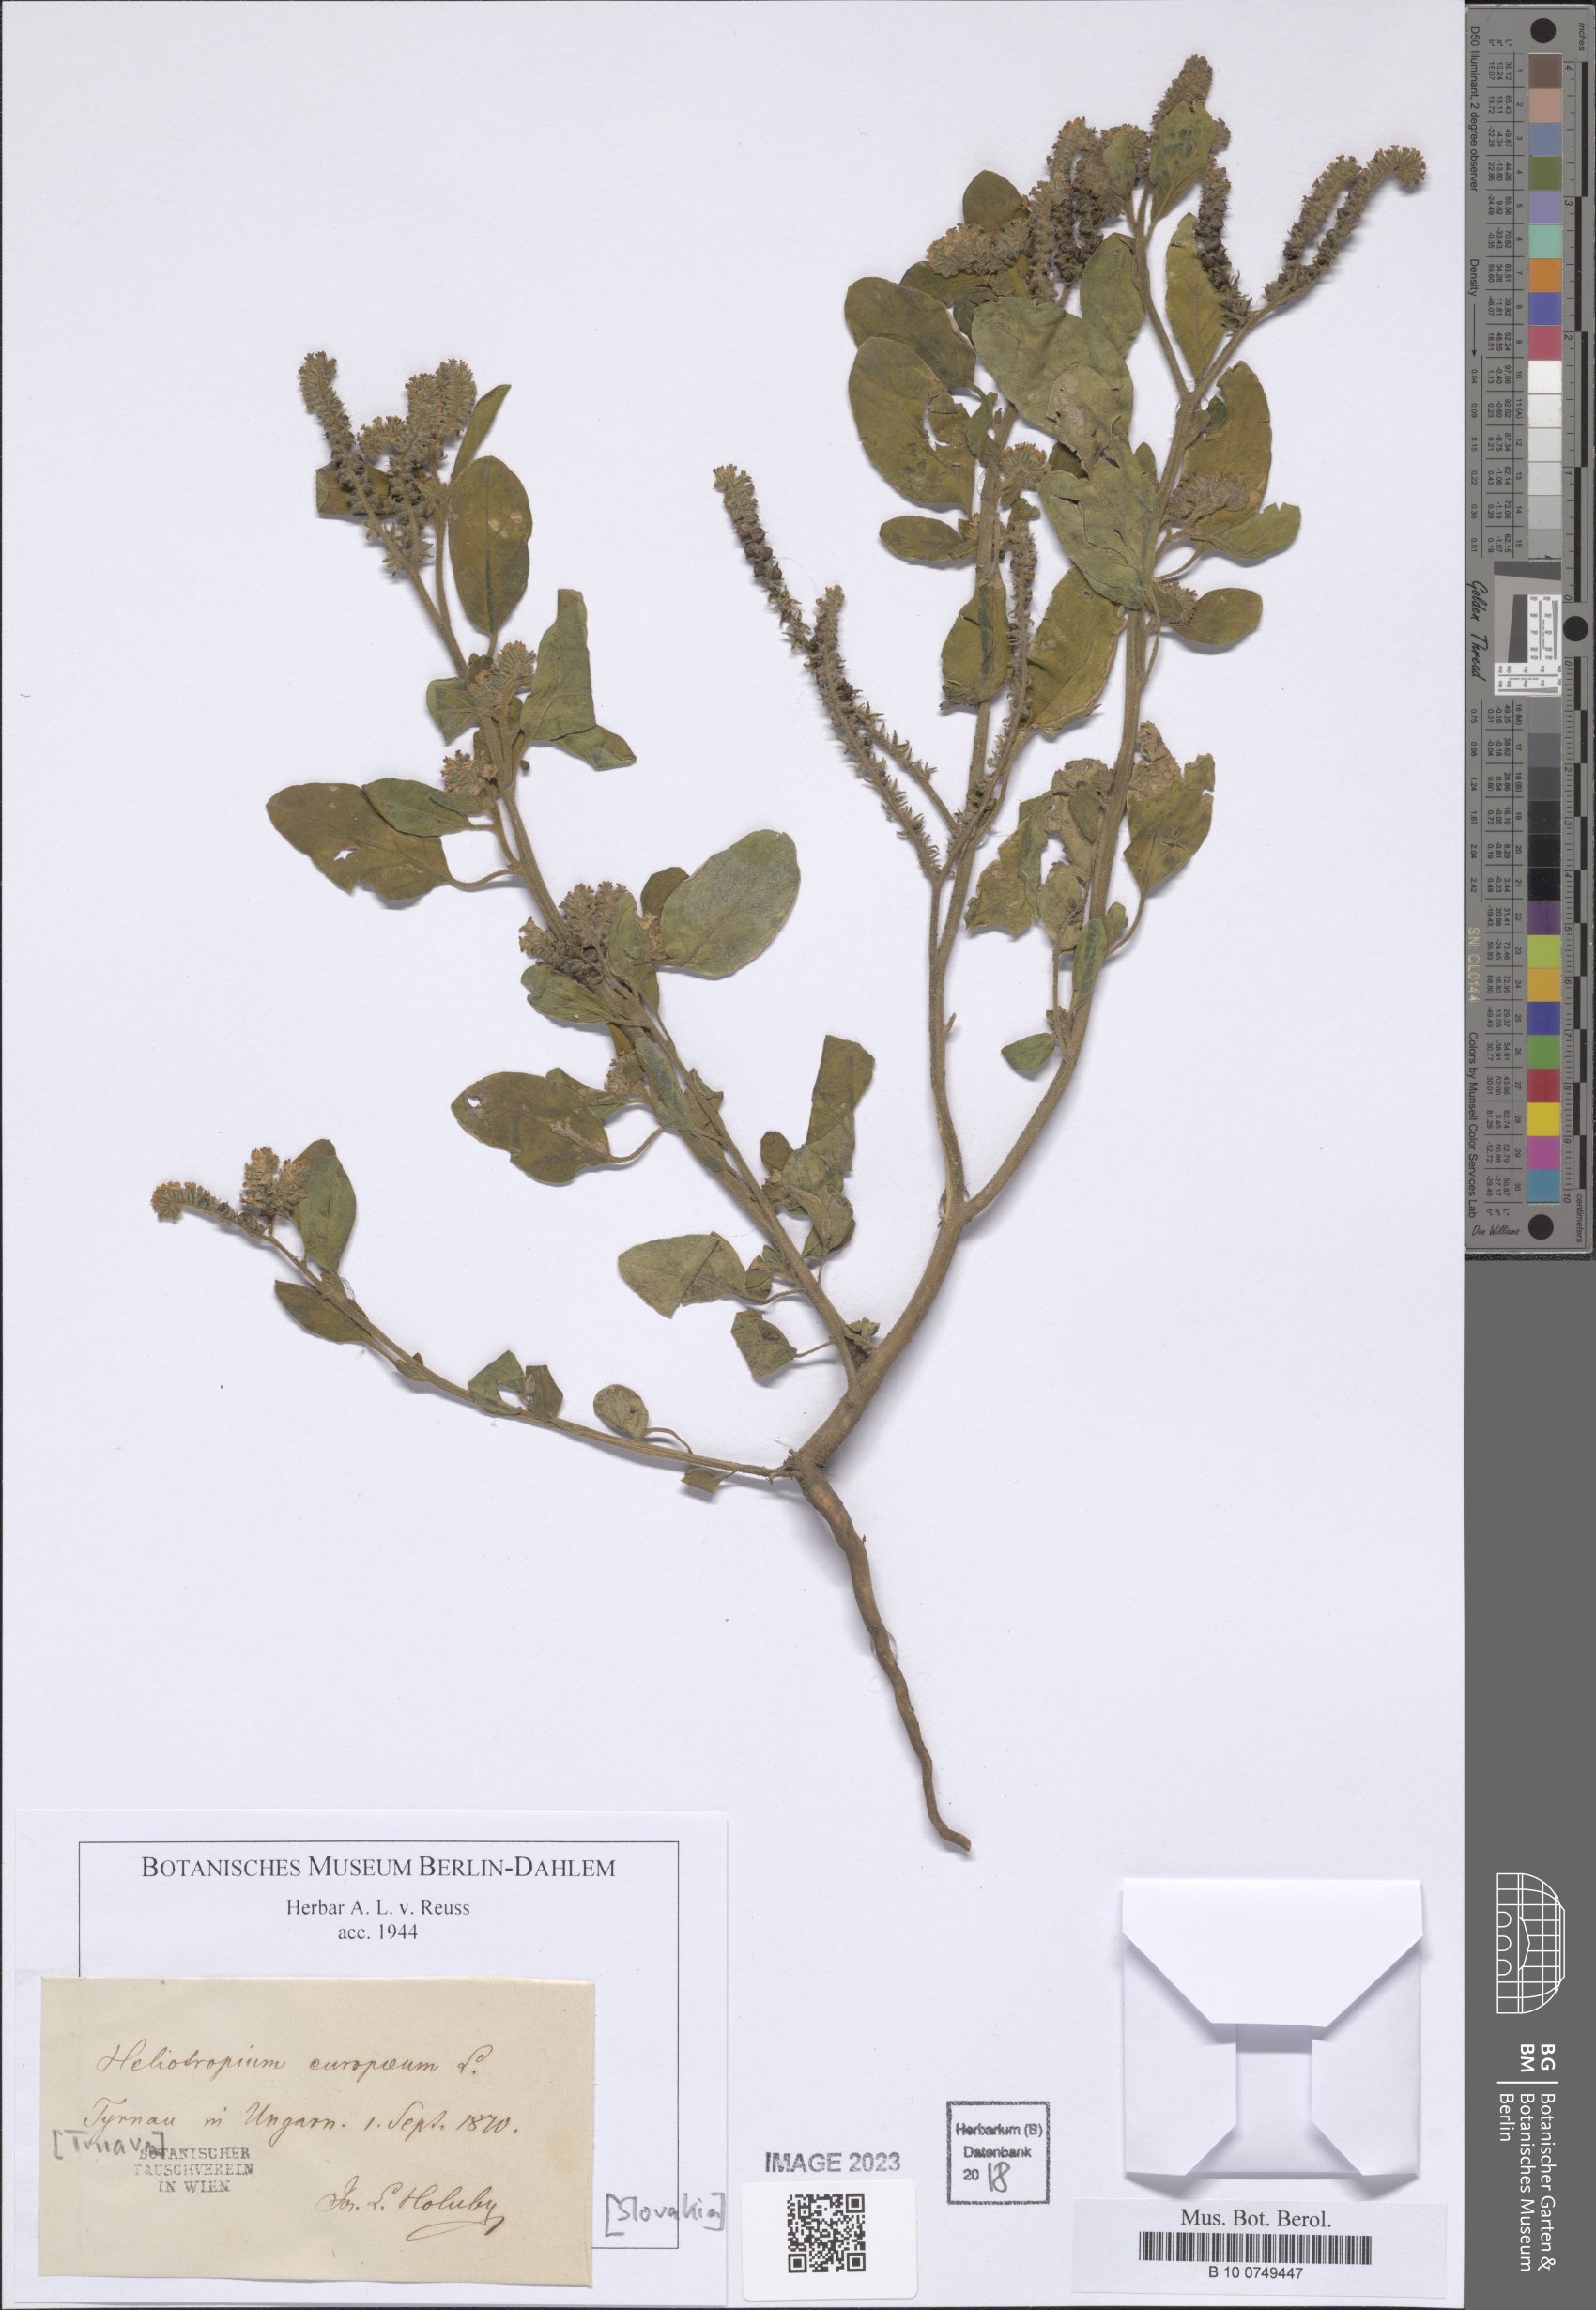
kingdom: Plantae
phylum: Tracheophyta
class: Magnoliopsida
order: Boraginales
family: Heliotropiaceae
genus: Heliotropium
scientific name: Heliotropium europaeum
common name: European heliotrope
